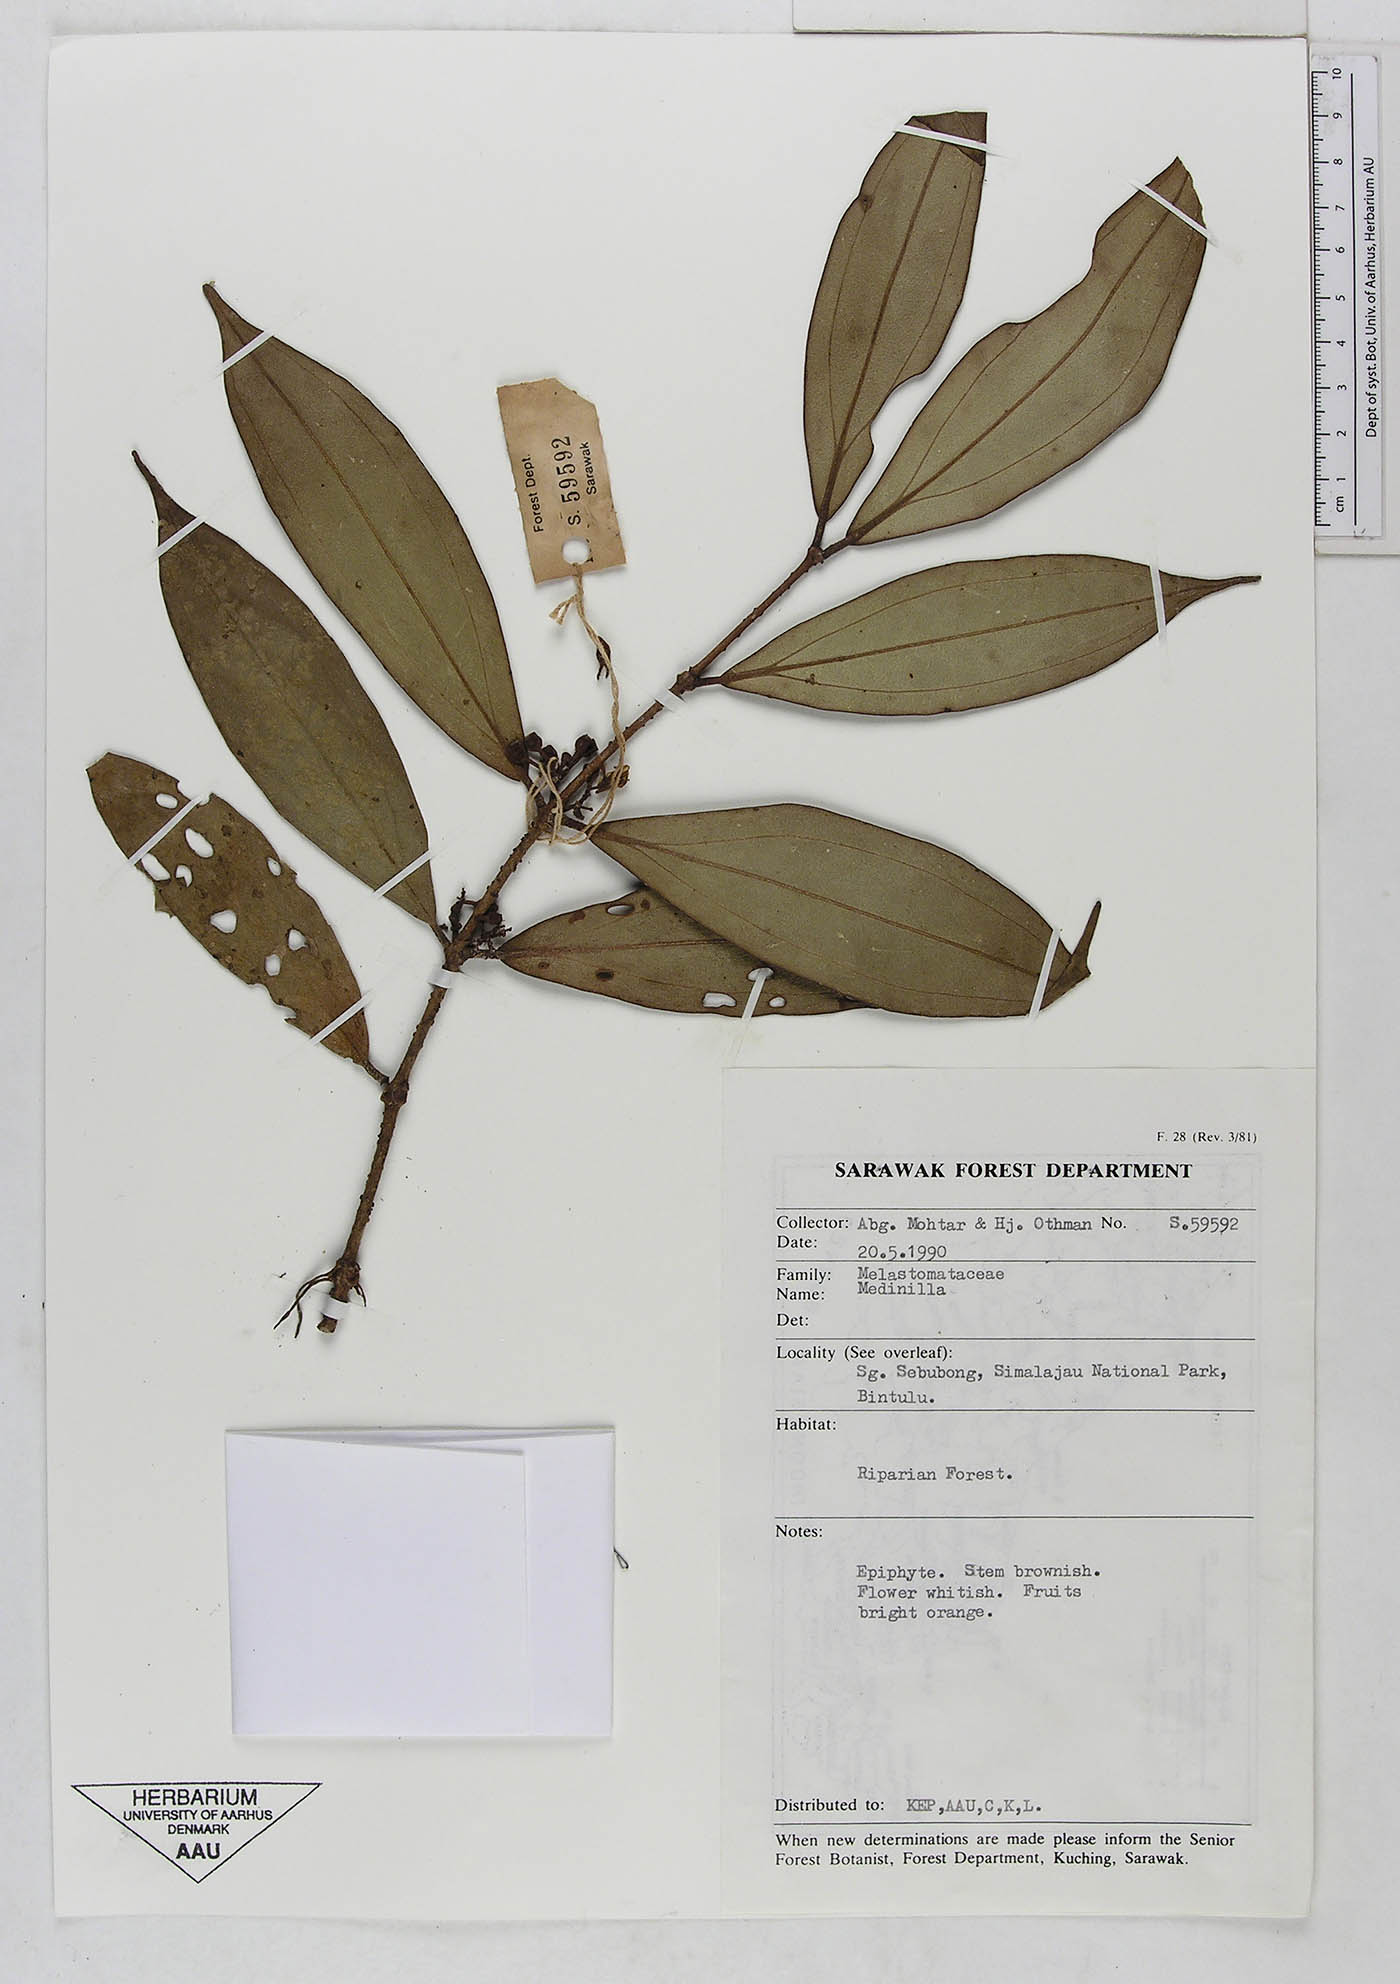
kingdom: Plantae
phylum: Tracheophyta
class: Magnoliopsida
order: Myrtales
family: Melastomataceae
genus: Medinilla
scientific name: Medinilla
